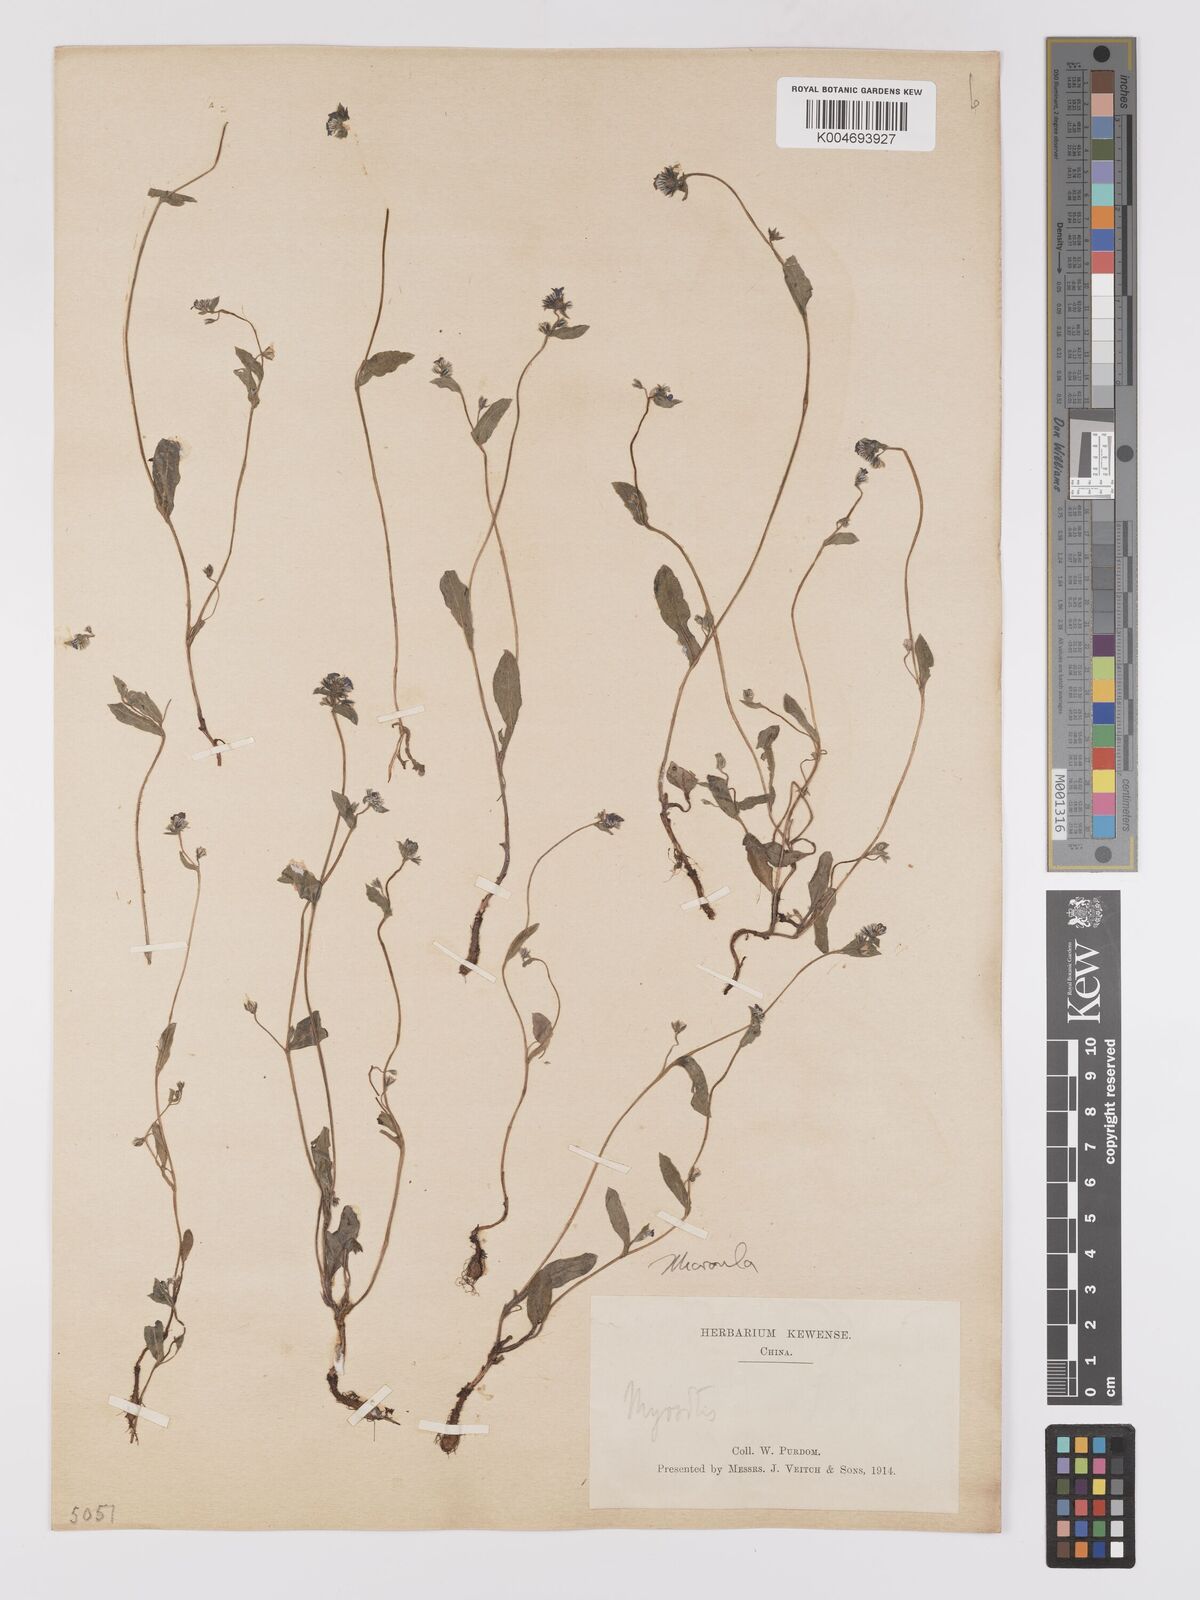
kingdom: Plantae
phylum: Tracheophyta
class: Magnoliopsida
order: Boraginales
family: Boraginaceae
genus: Microula
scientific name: Microula sikkimensis
